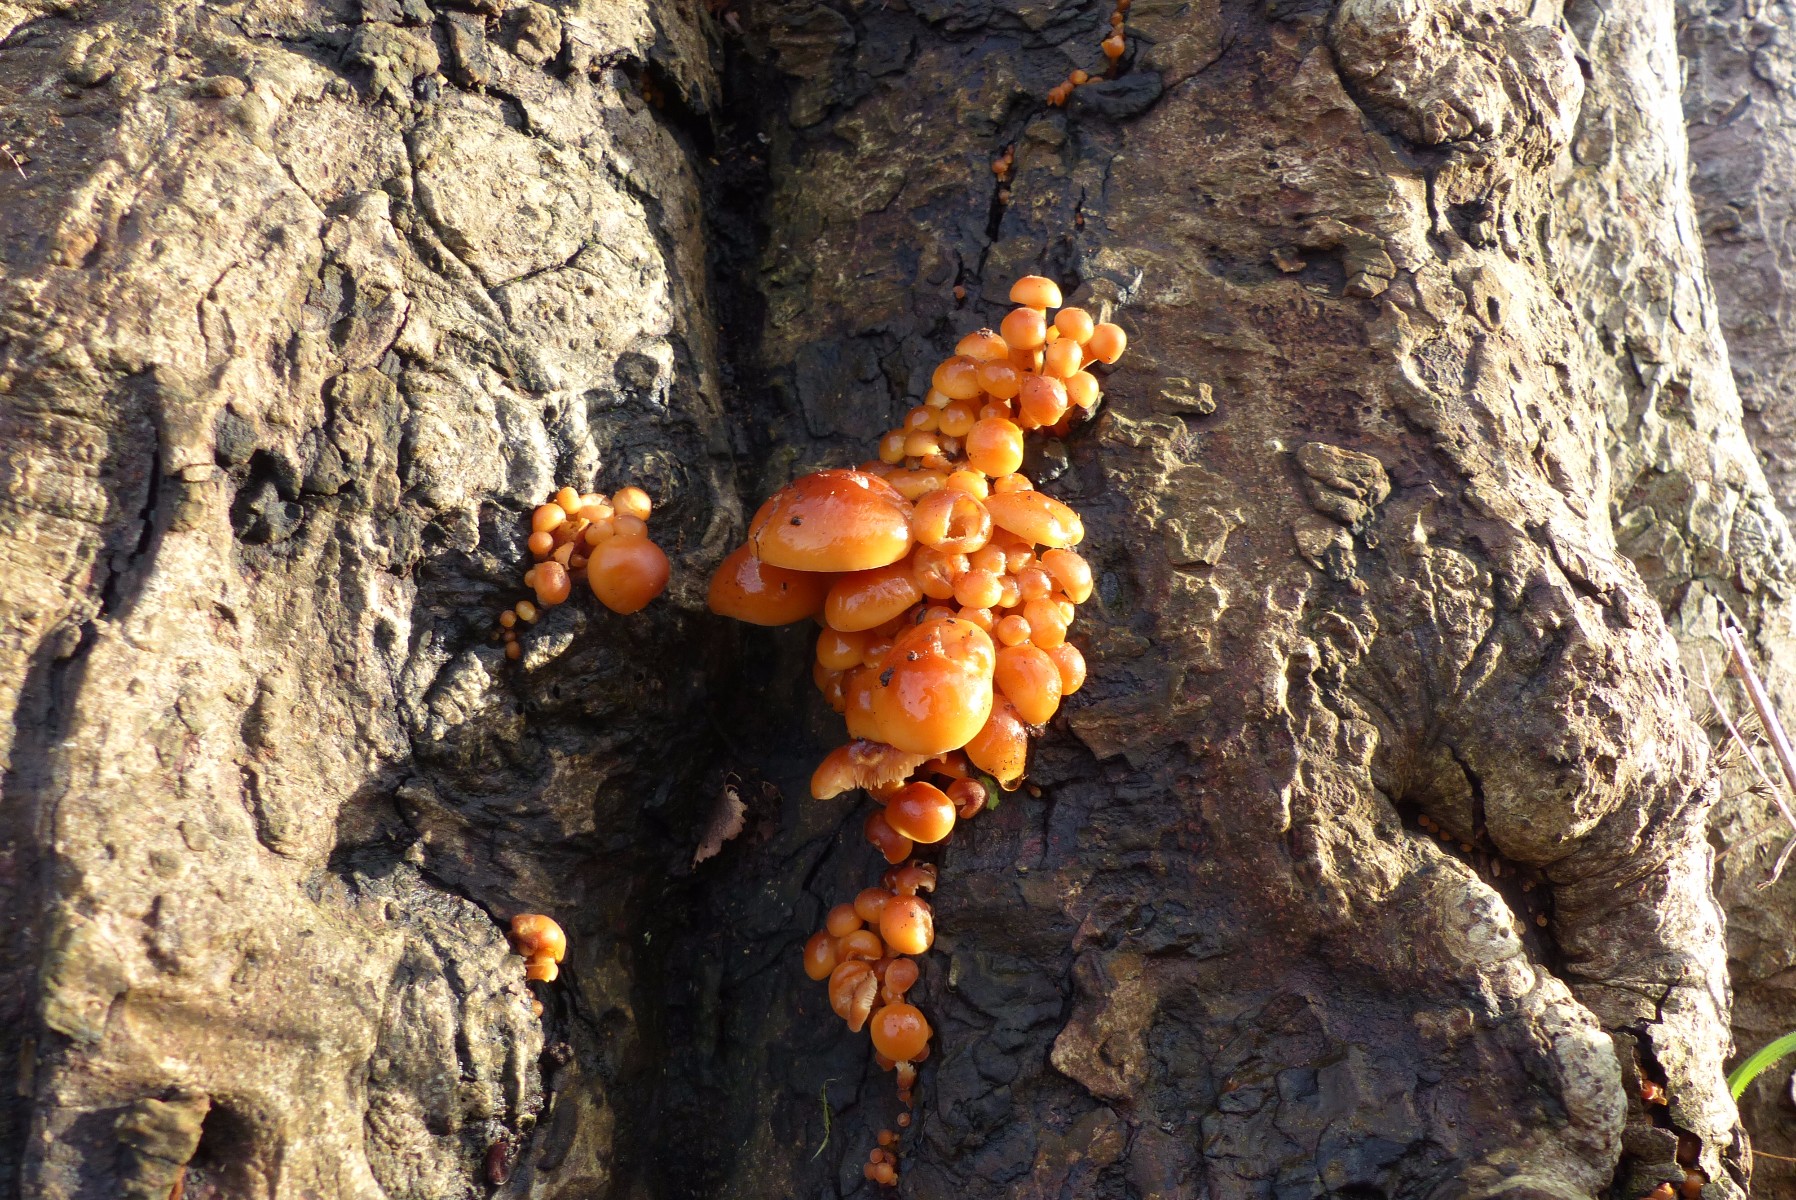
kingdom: Fungi
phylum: Basidiomycota
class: Agaricomycetes
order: Agaricales
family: Physalacriaceae
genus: Flammulina
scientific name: Flammulina velutipes
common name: gul fløjlsfod
